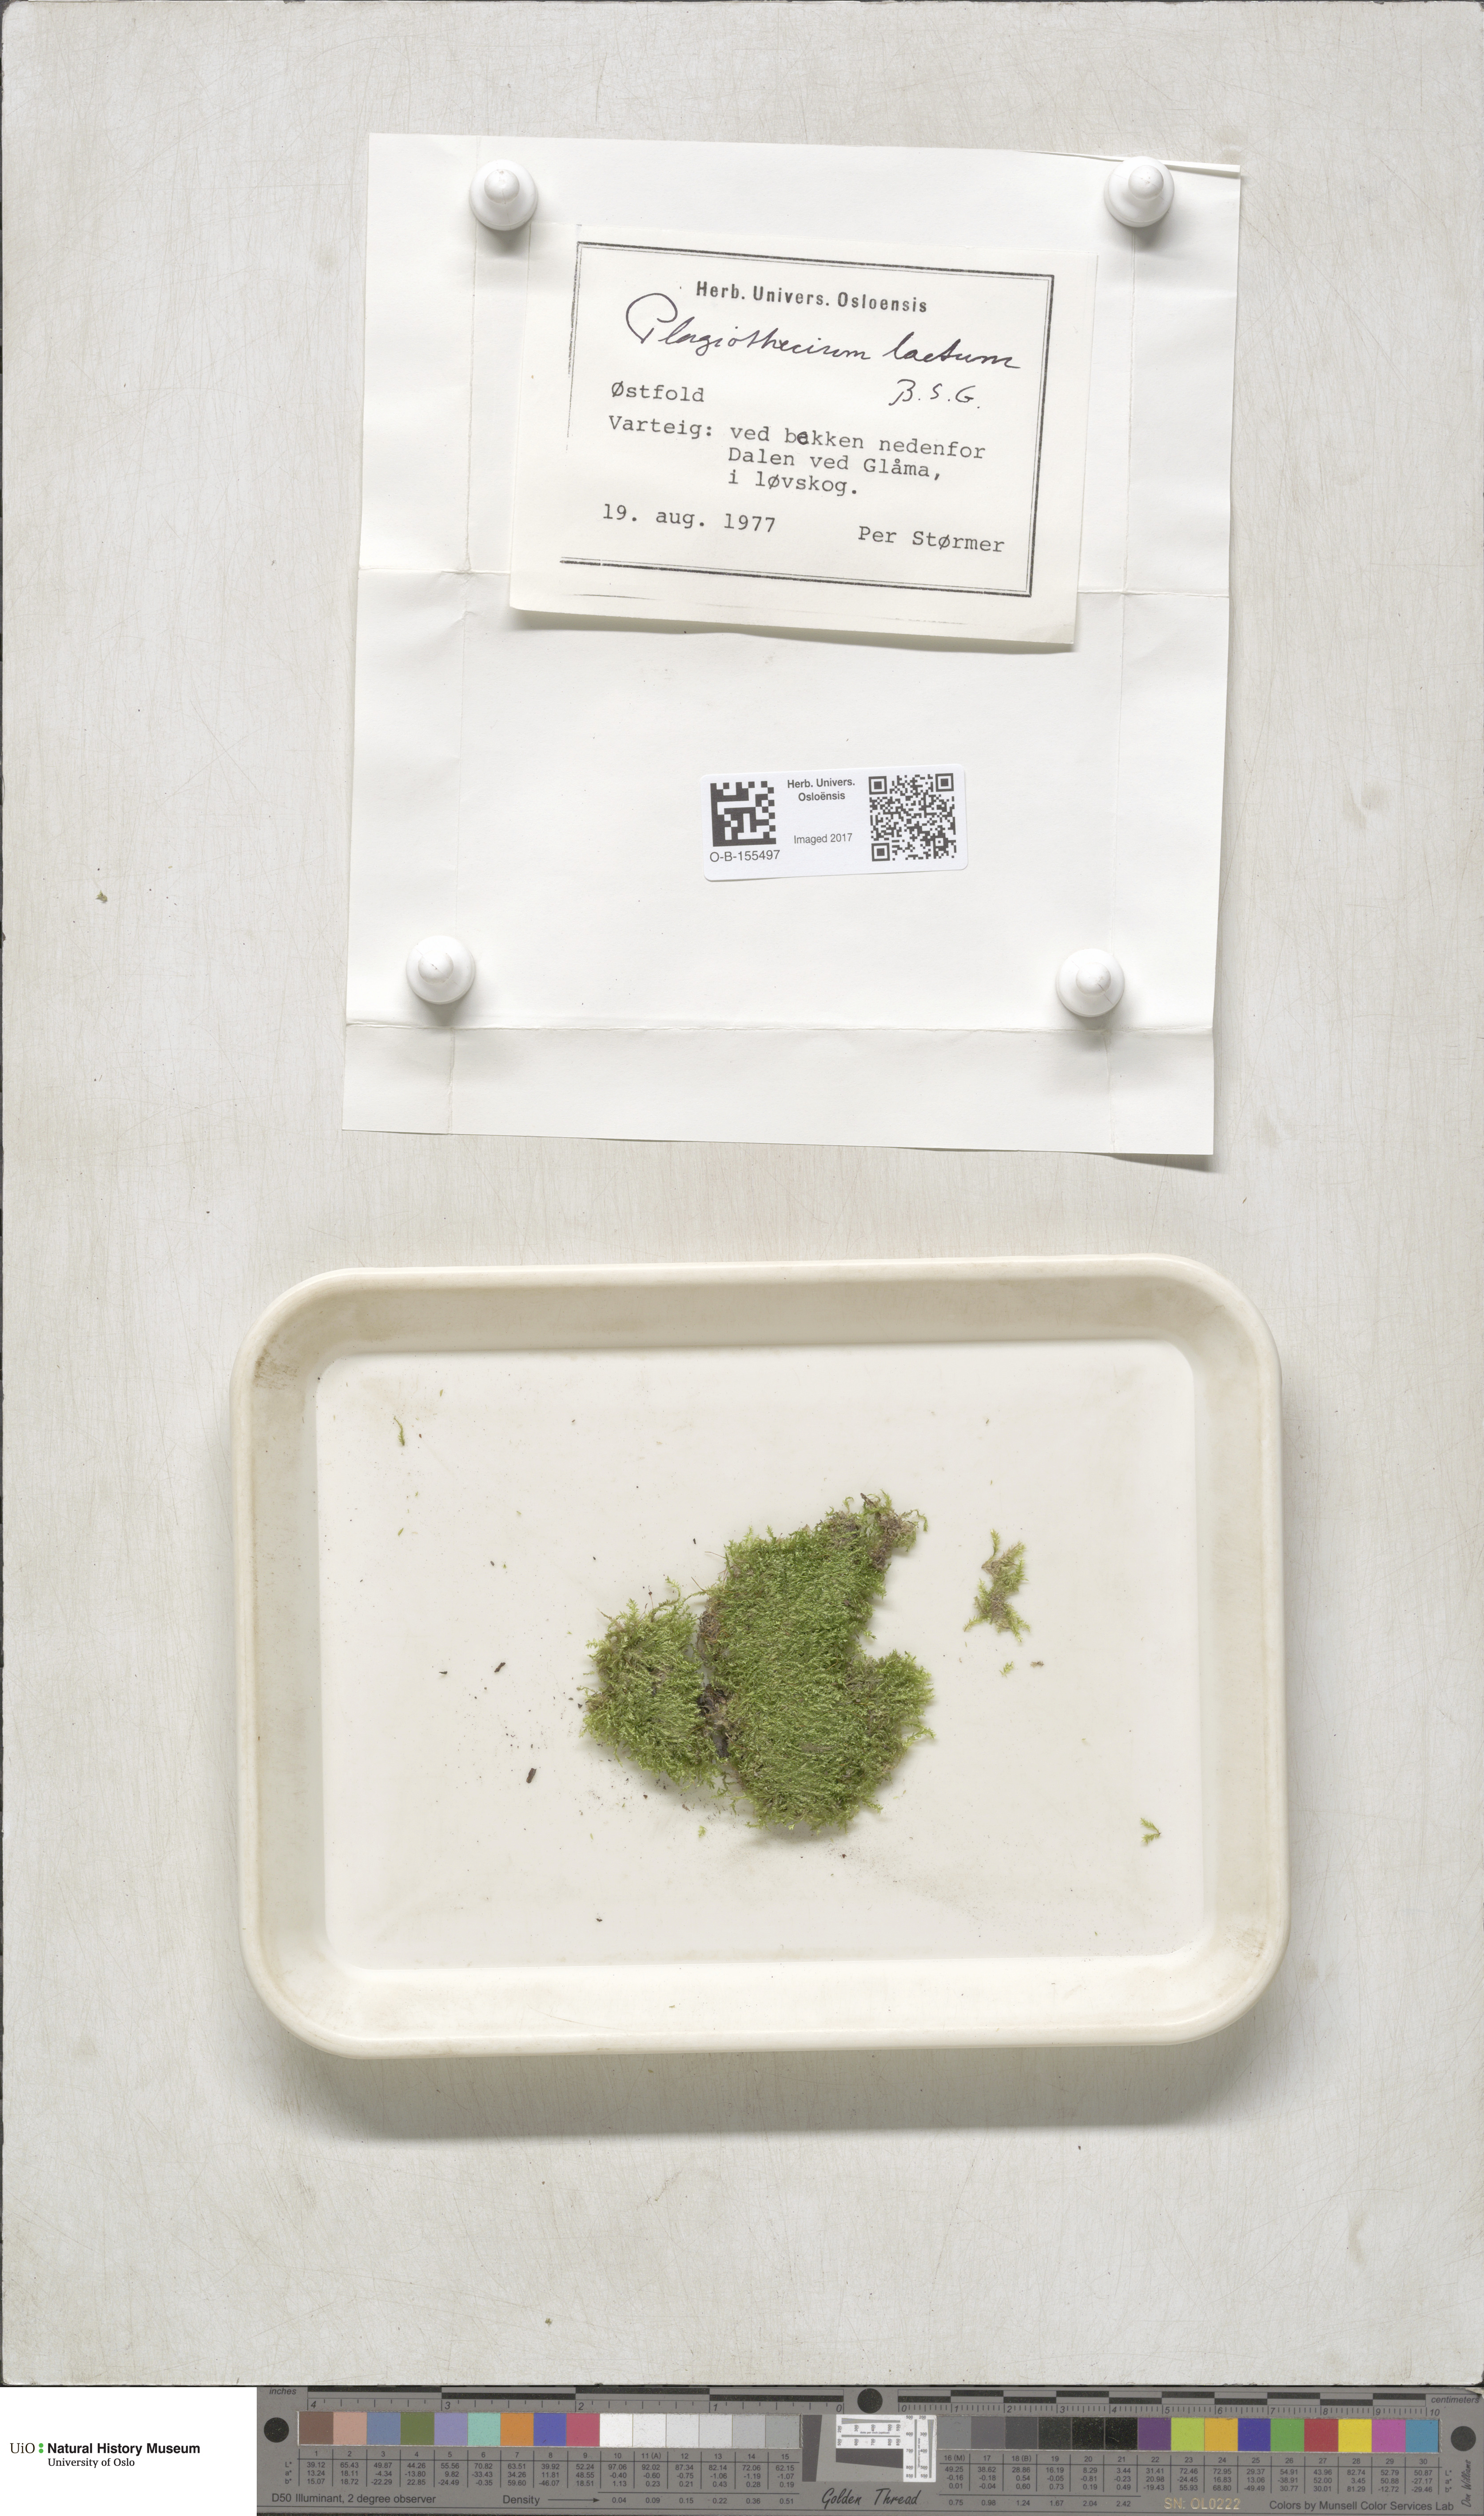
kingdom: Plantae
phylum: Bryophyta
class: Bryopsida
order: Hypnales
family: Plagiotheciaceae
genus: Plagiothecium
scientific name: Plagiothecium laetum
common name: Bright silk moss
